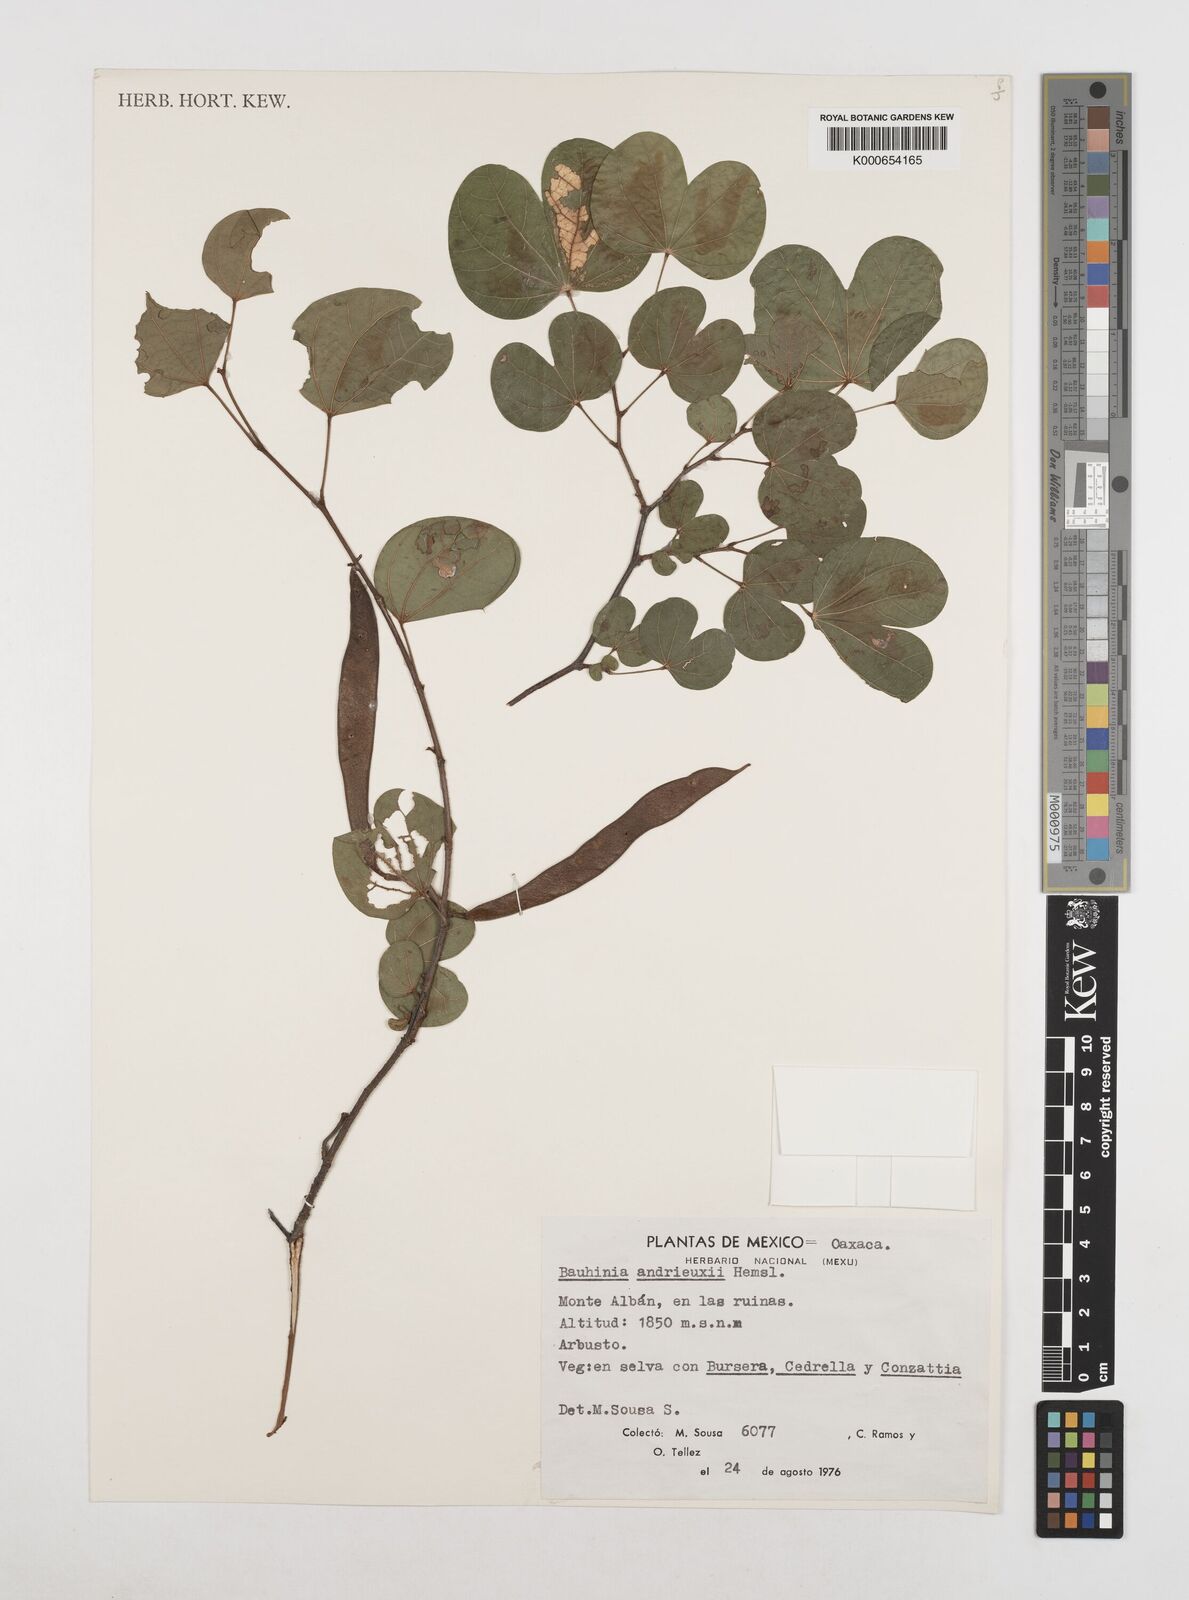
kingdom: Plantae
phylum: Tracheophyta
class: Magnoliopsida
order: Fabales
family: Fabaceae
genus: Bauhinia
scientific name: Bauhinia
